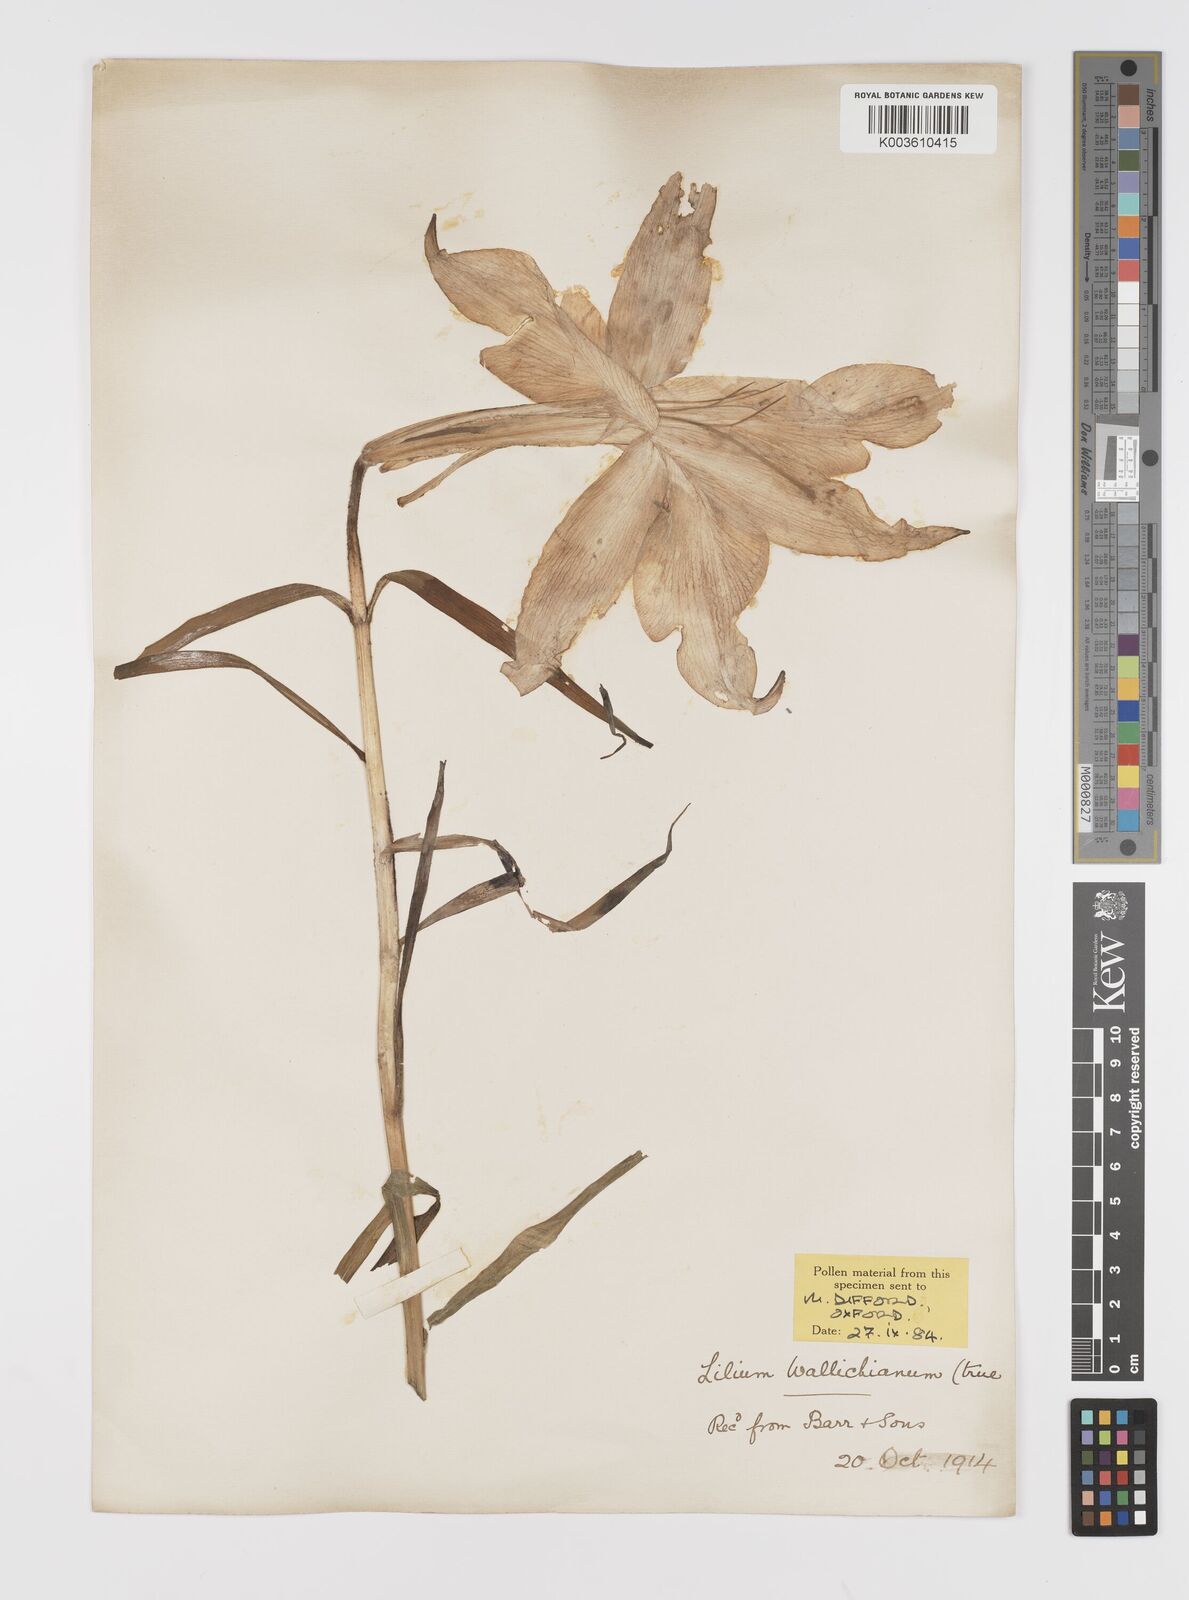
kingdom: Plantae
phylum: Tracheophyta
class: Liliopsida
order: Liliales
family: Liliaceae
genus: Lilium
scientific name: Lilium wallichianum
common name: Wallich's lily
